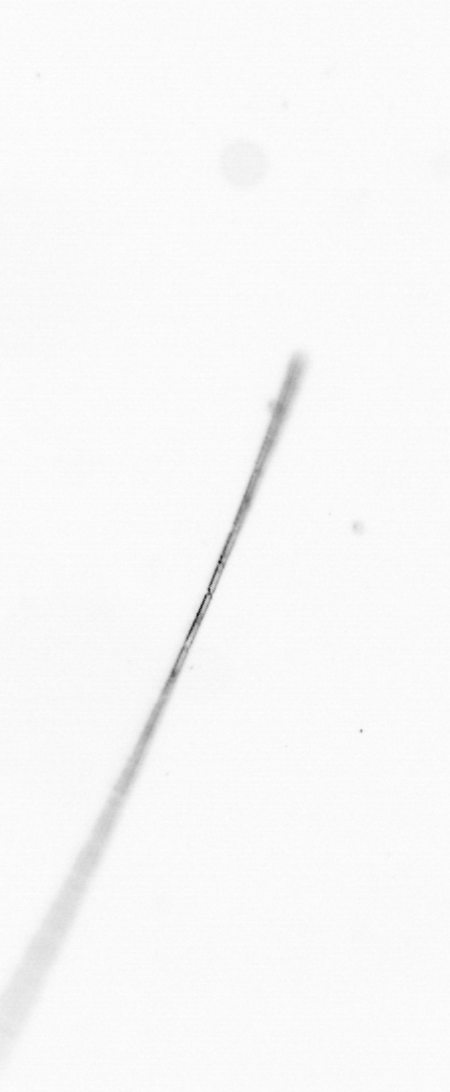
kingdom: Chromista
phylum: Ochrophyta
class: Bacillariophyceae
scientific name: Bacillariophyceae
